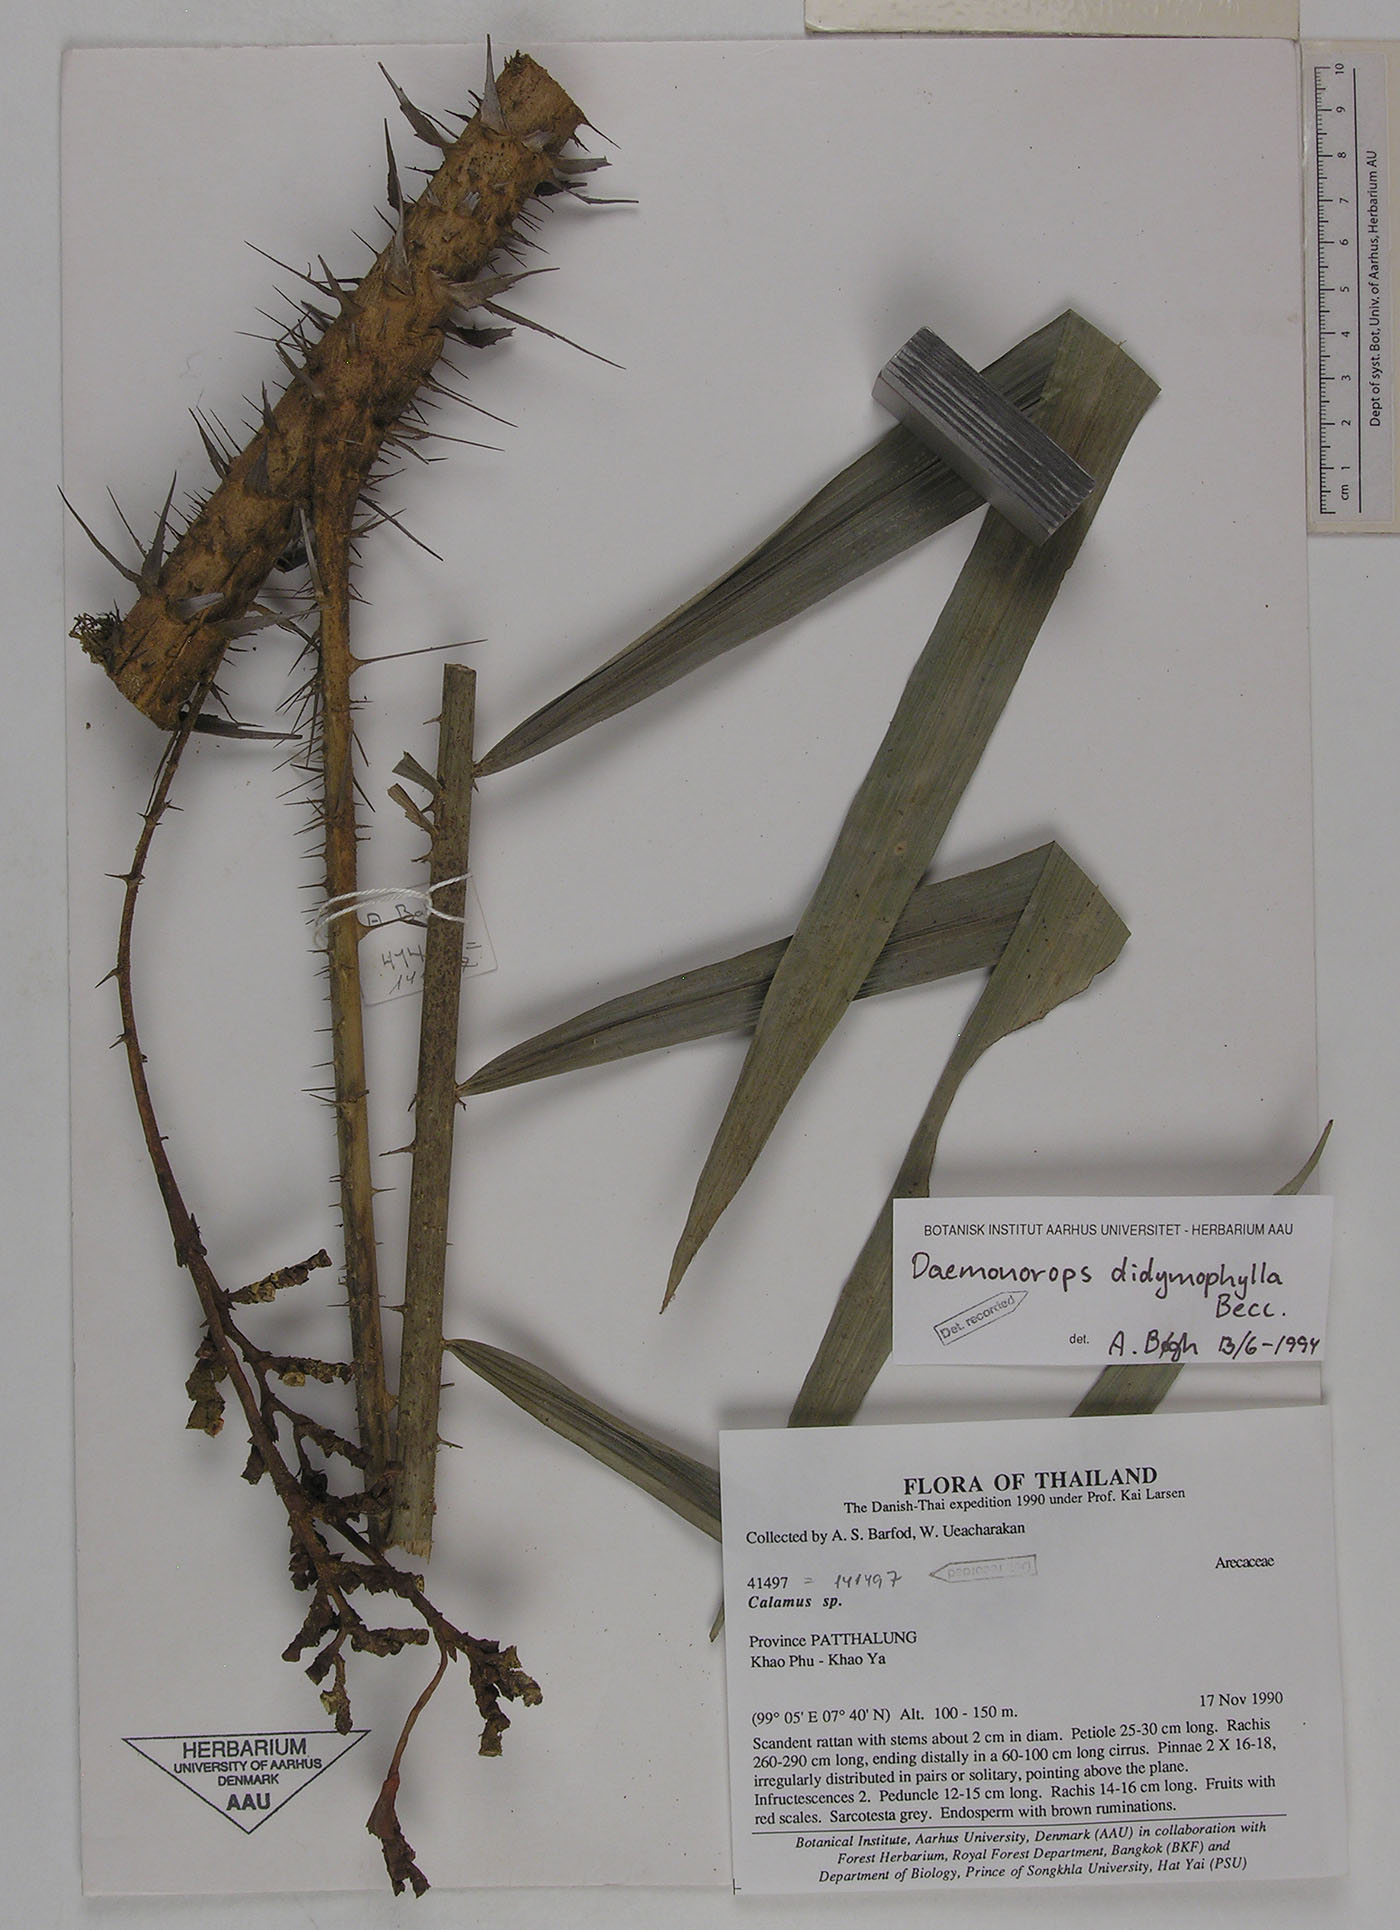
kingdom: Plantae
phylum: Tracheophyta
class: Liliopsida
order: Arecales
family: Arecaceae
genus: Calamus
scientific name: Calamus gracilipes
